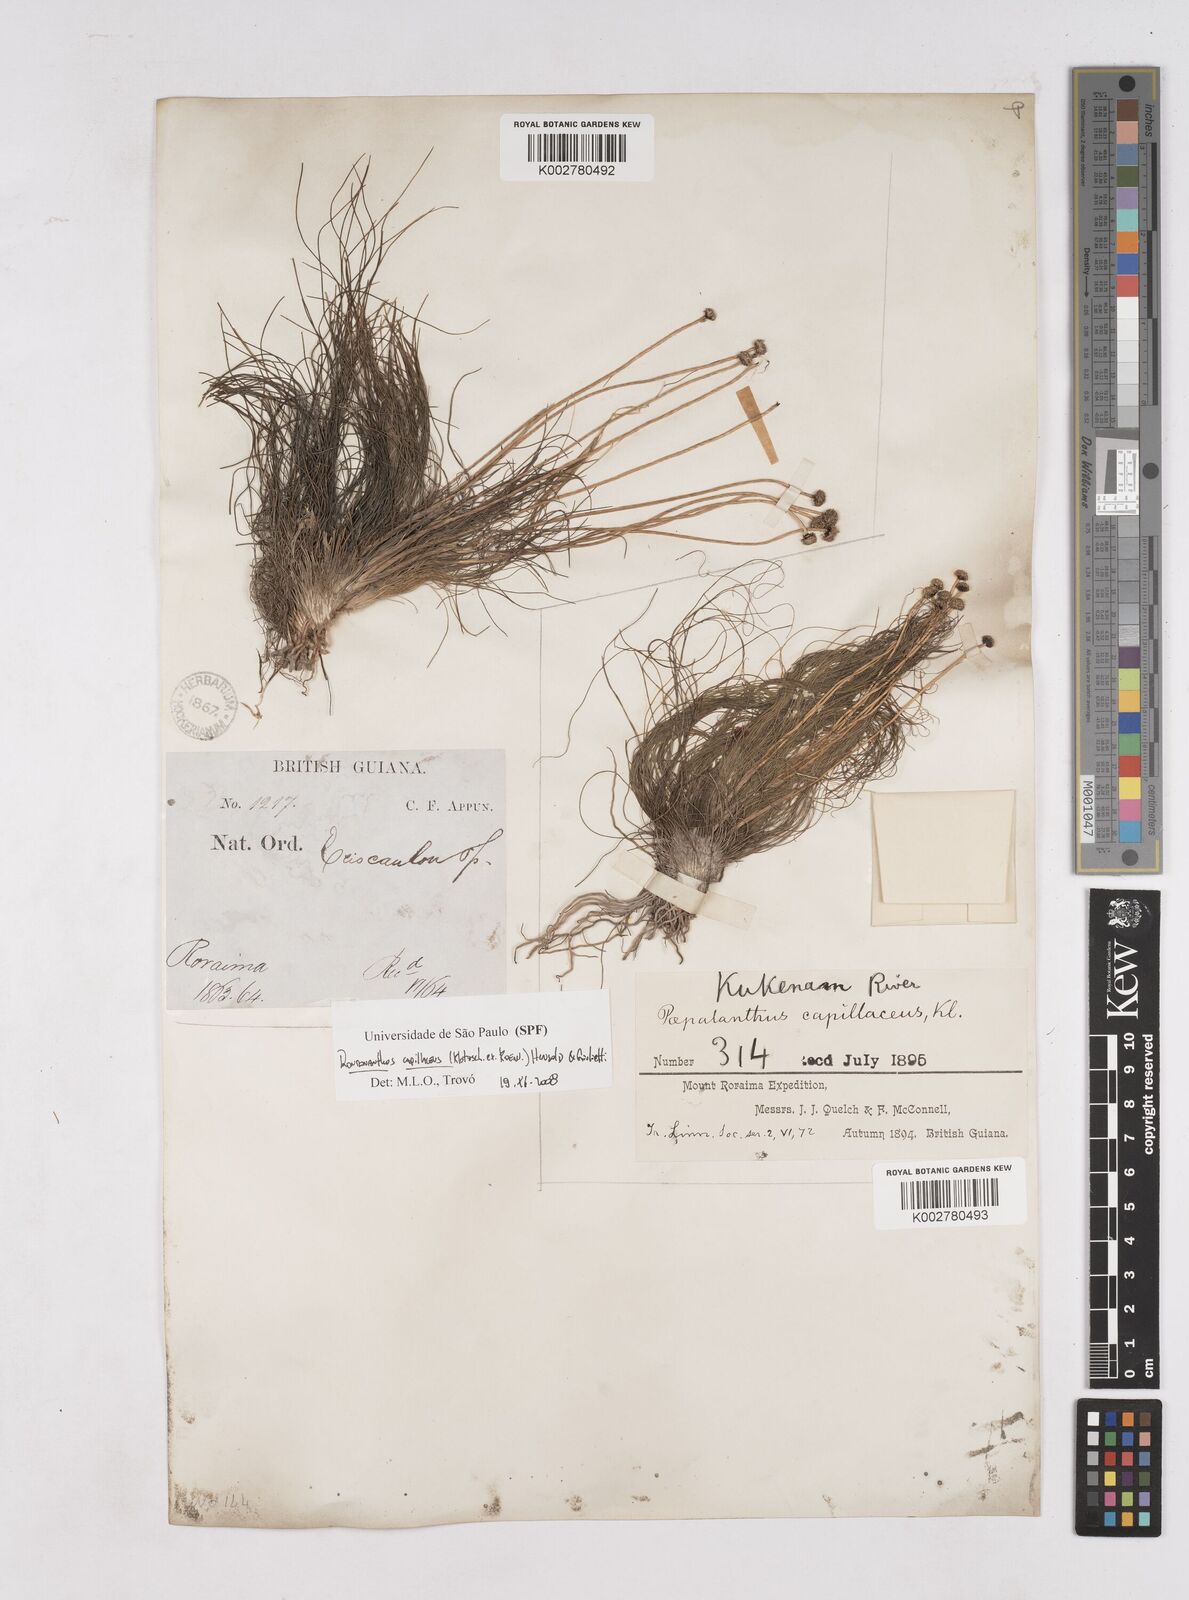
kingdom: Plantae
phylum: Tracheophyta
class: Liliopsida
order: Poales
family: Eriocaulaceae
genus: Rondonanthus
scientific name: Rondonanthus capillaceus
